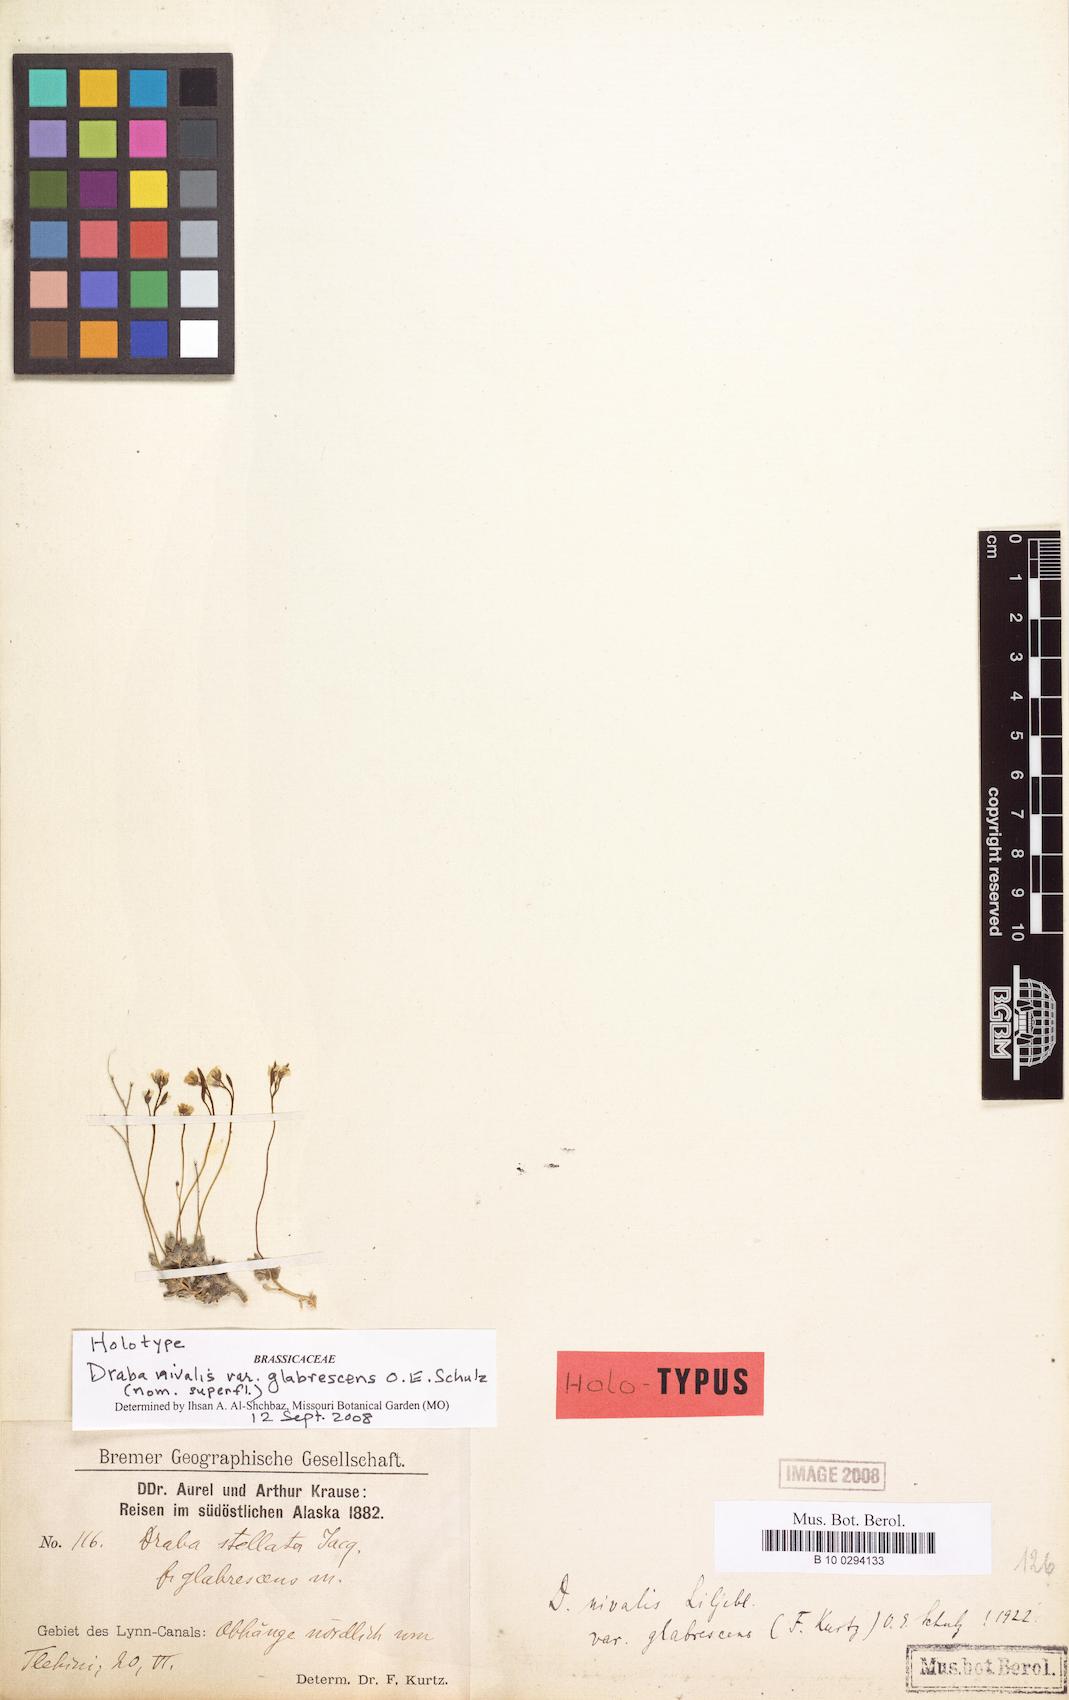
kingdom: Plantae
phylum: Tracheophyta
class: Magnoliopsida
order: Brassicales
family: Brassicaceae
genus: Draba
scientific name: Draba nivalis
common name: Snow draba
